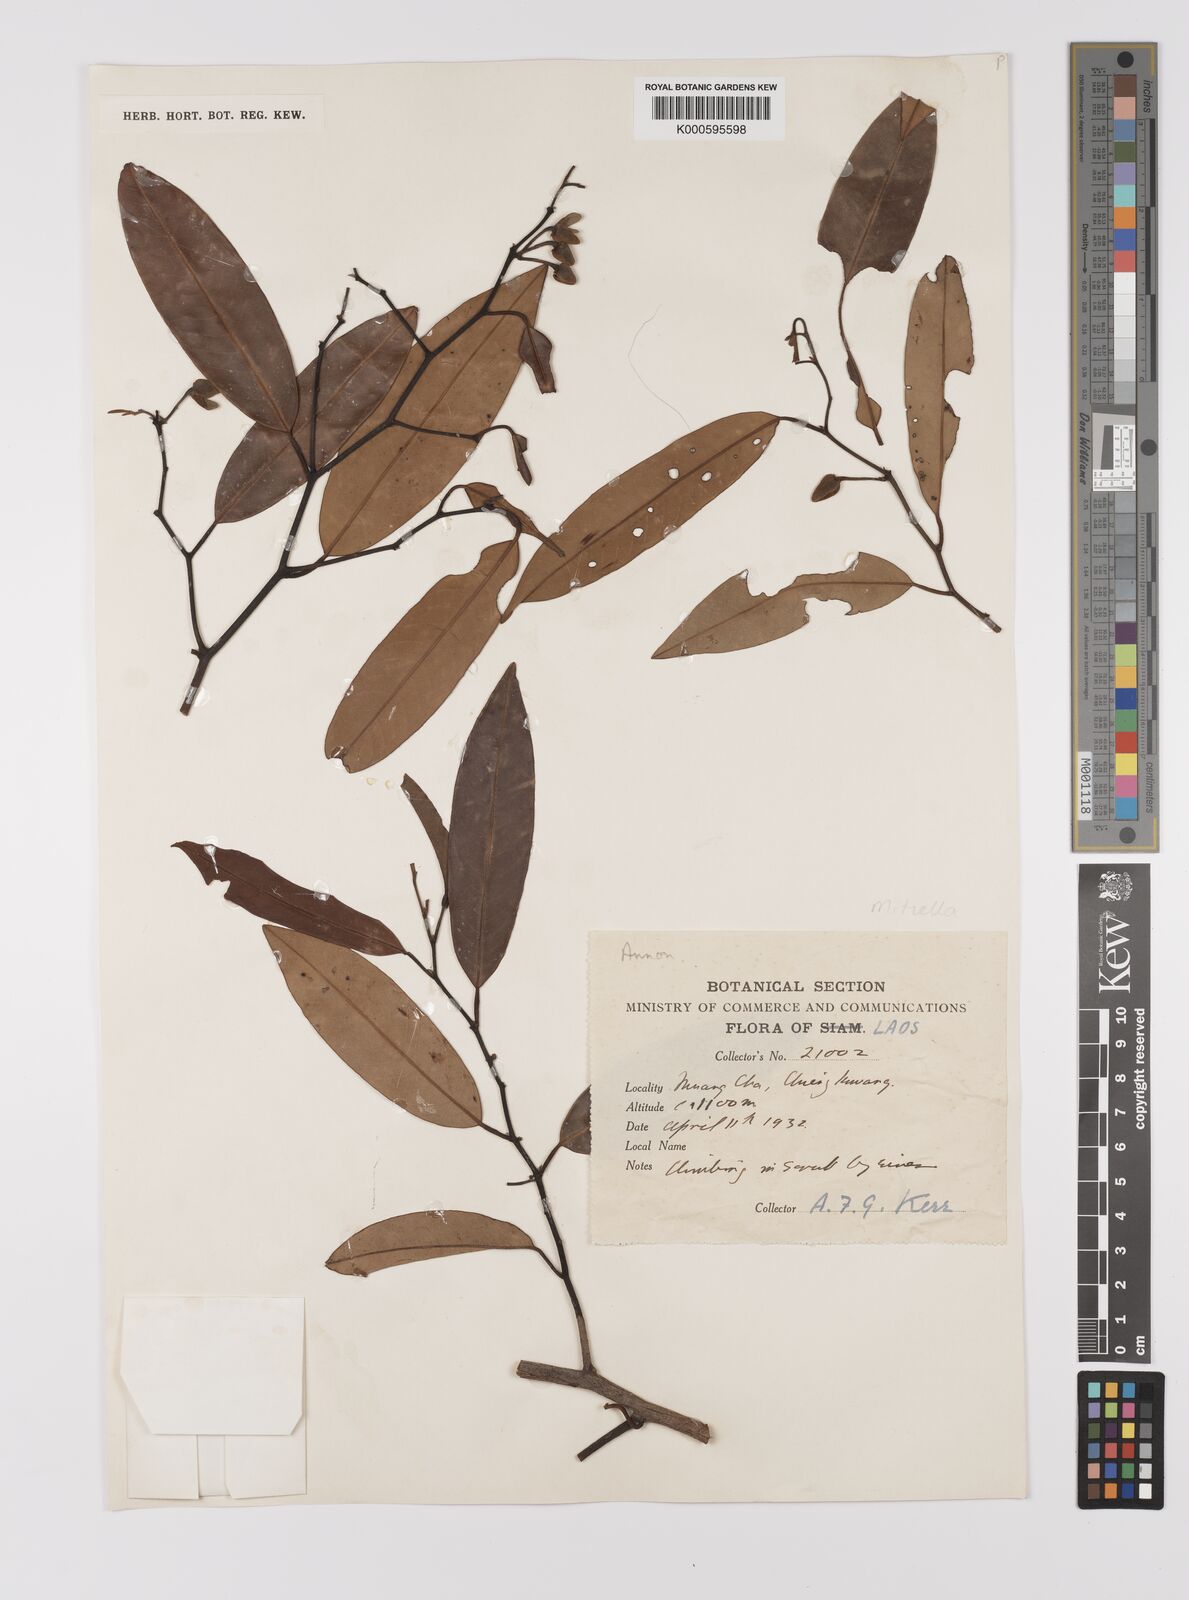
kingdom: Plantae
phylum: Tracheophyta
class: Magnoliopsida
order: Magnoliales
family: Annonaceae
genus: Fissistigma
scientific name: Fissistigma poilanei
